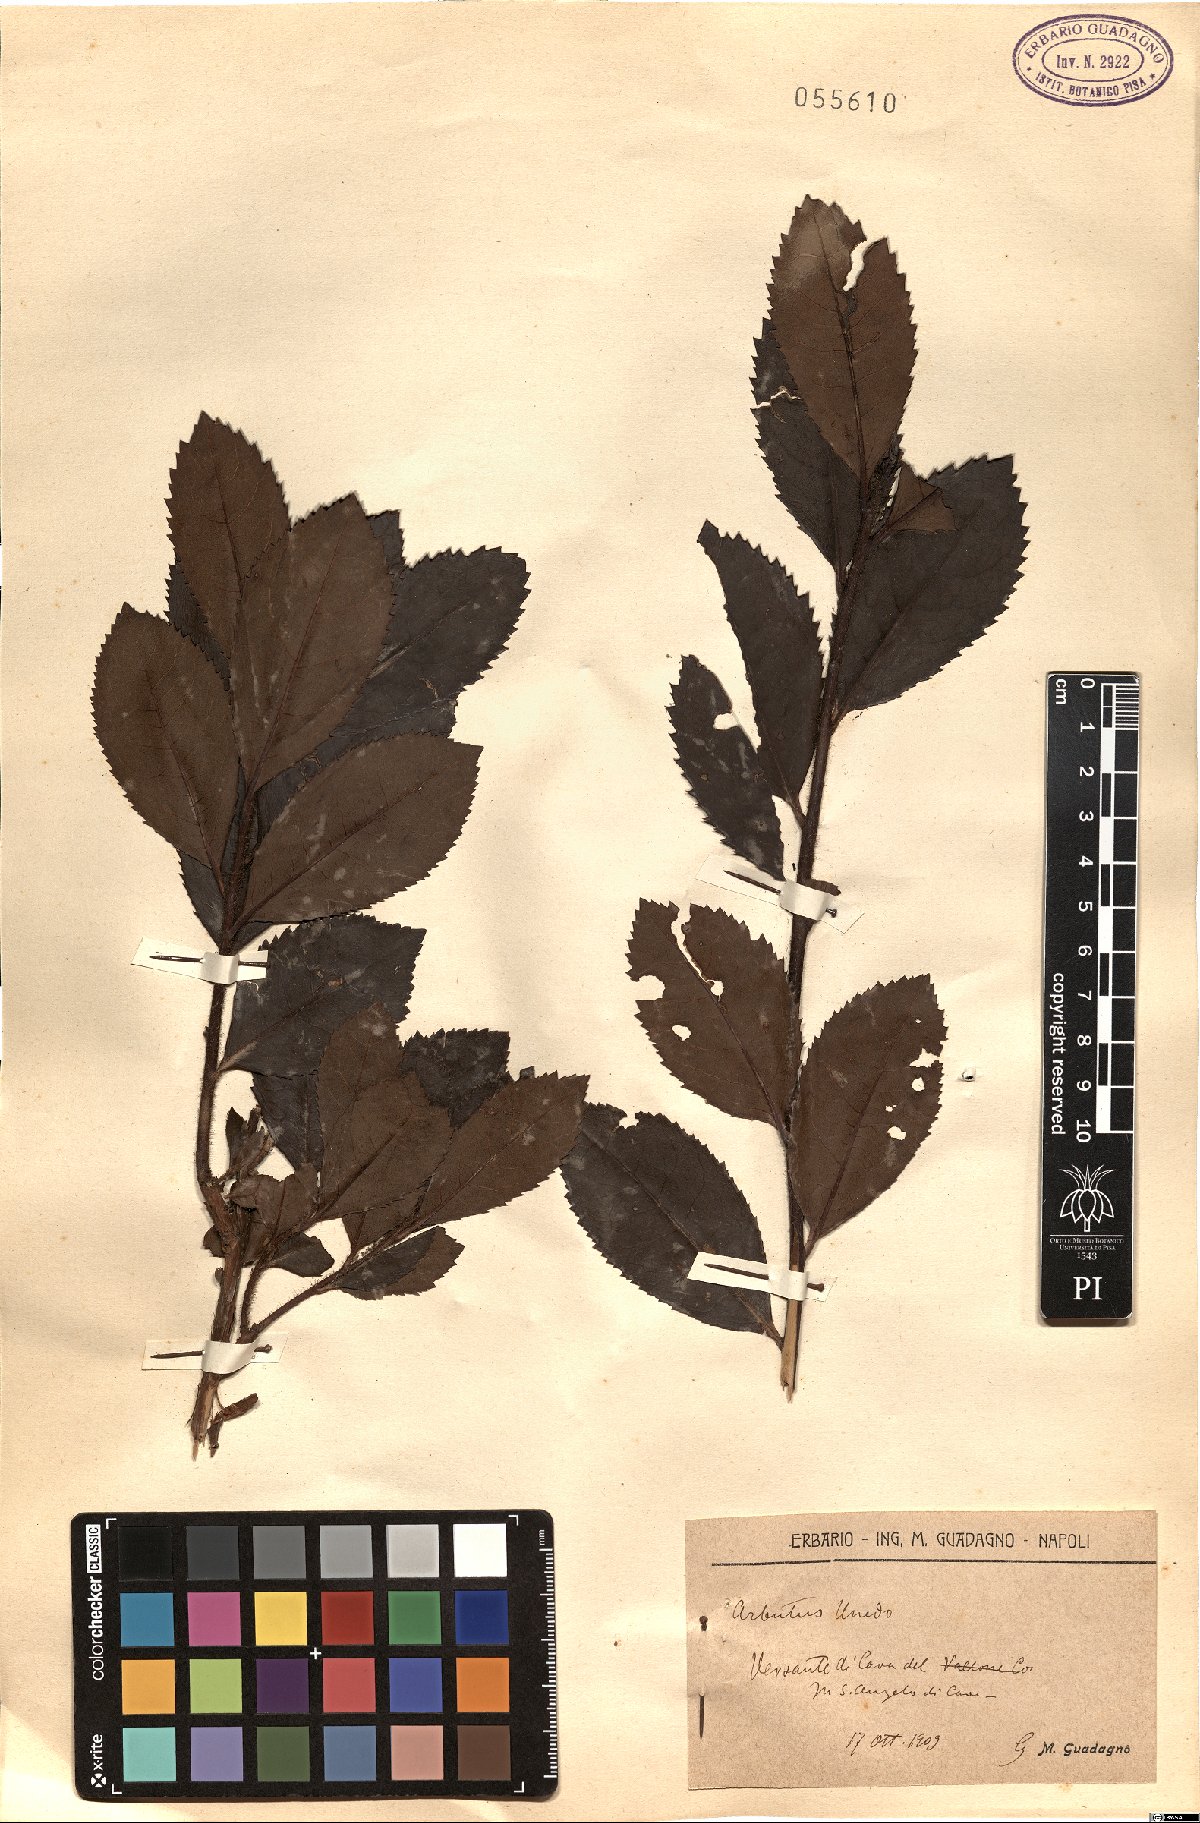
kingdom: Plantae
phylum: Tracheophyta
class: Magnoliopsida
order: Ericales
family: Ericaceae
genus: Arbutus
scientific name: Arbutus unedo
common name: Strawberry-tree
